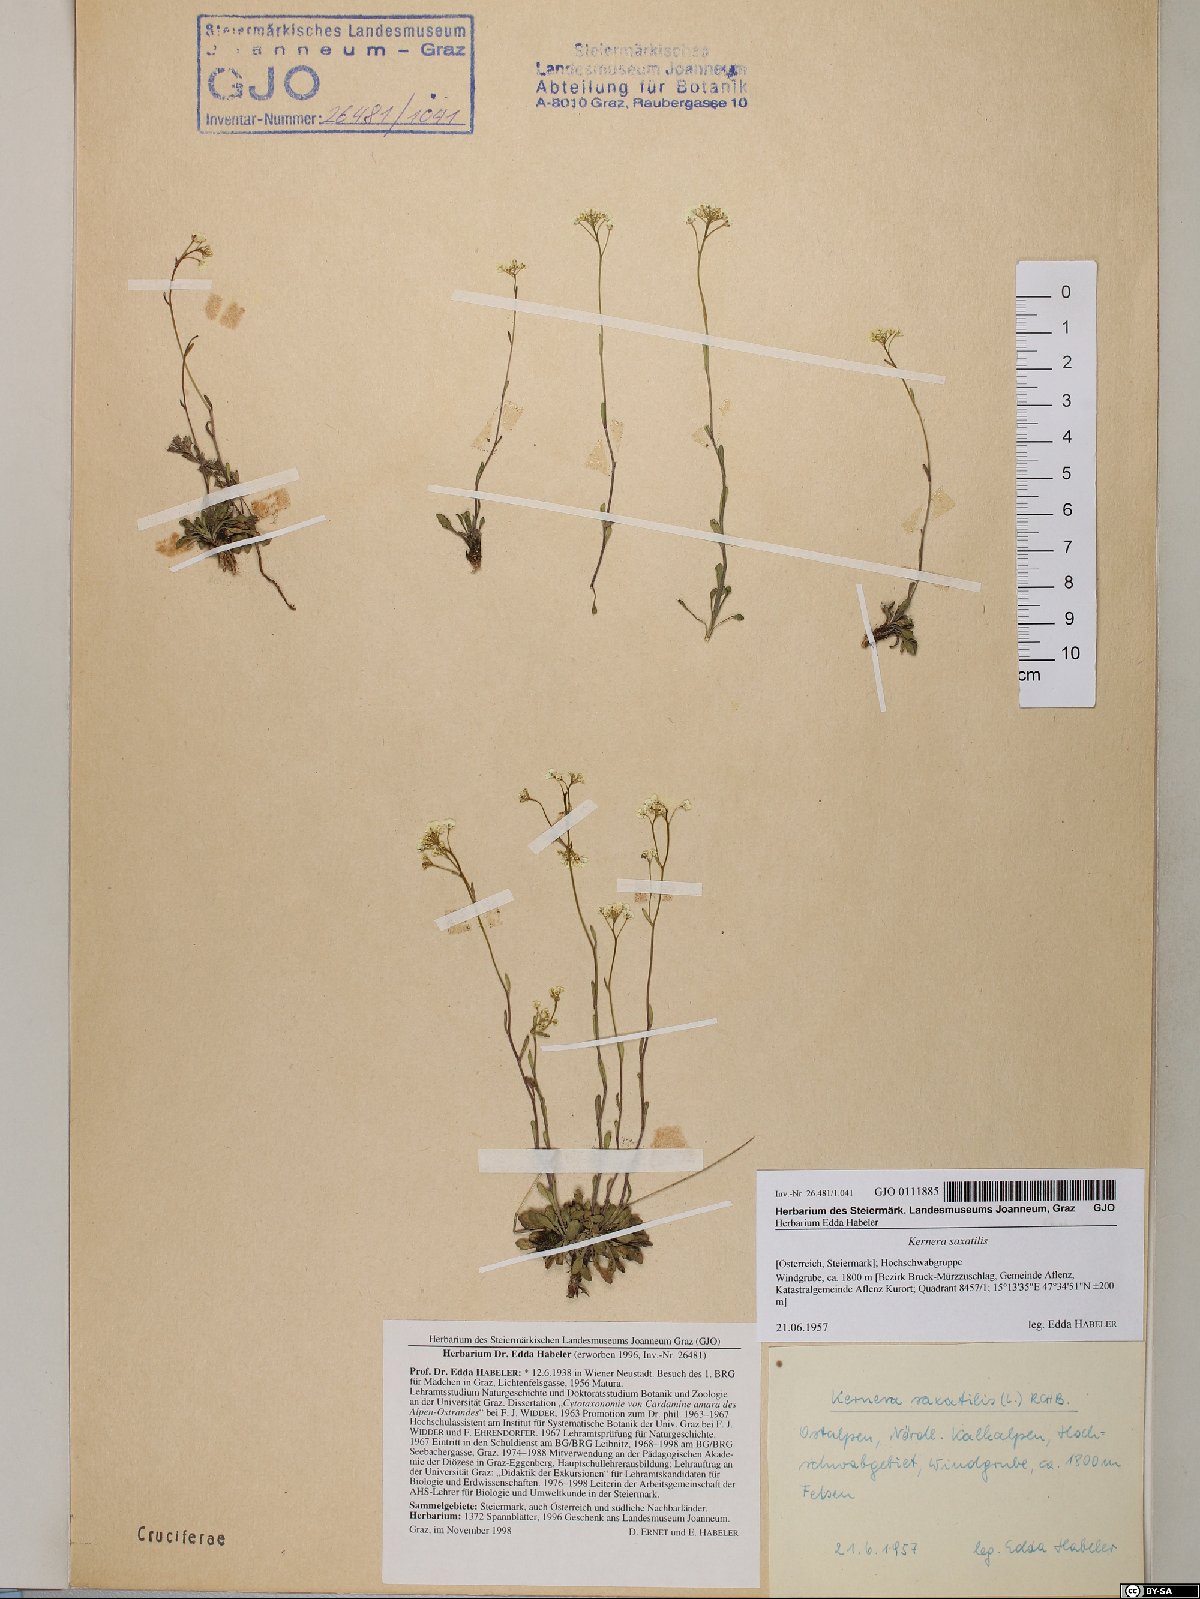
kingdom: Plantae
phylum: Tracheophyta
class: Magnoliopsida
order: Brassicales
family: Brassicaceae
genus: Kernera
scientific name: Kernera saxatilis
